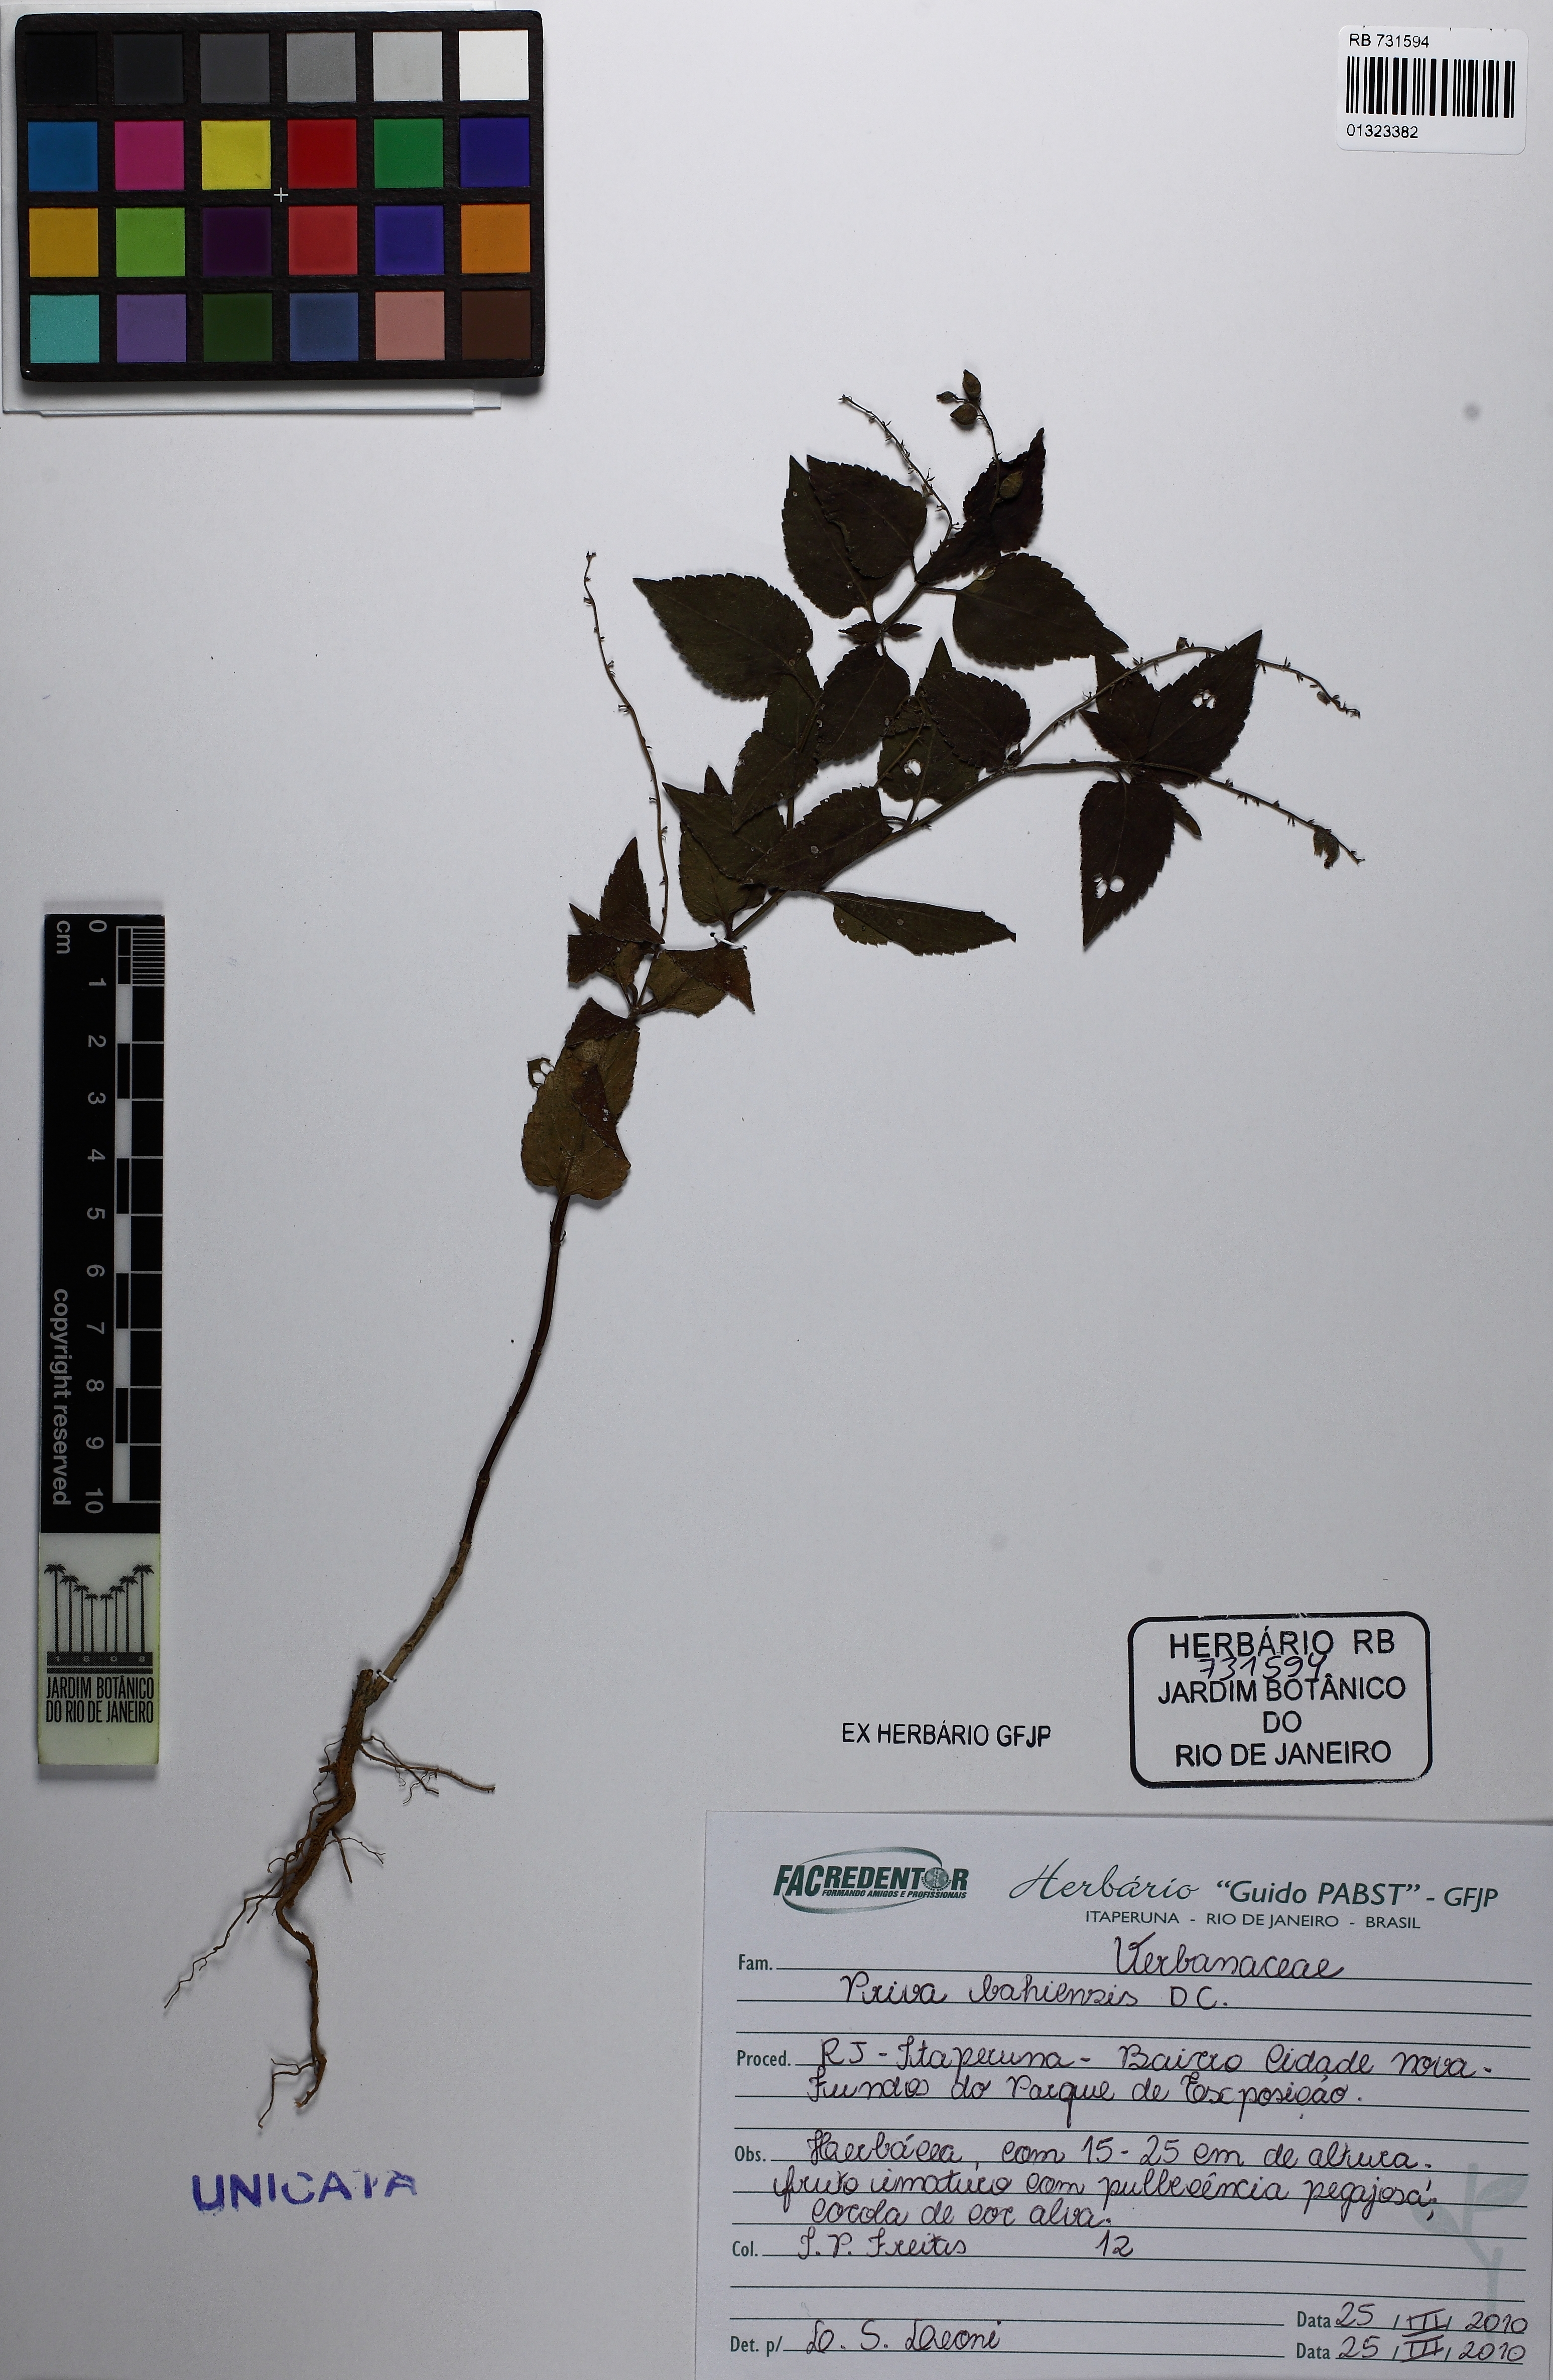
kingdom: Plantae
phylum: Tracheophyta
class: Magnoliopsida
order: Lamiales
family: Verbenaceae
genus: Priva
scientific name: Priva bahiensis
